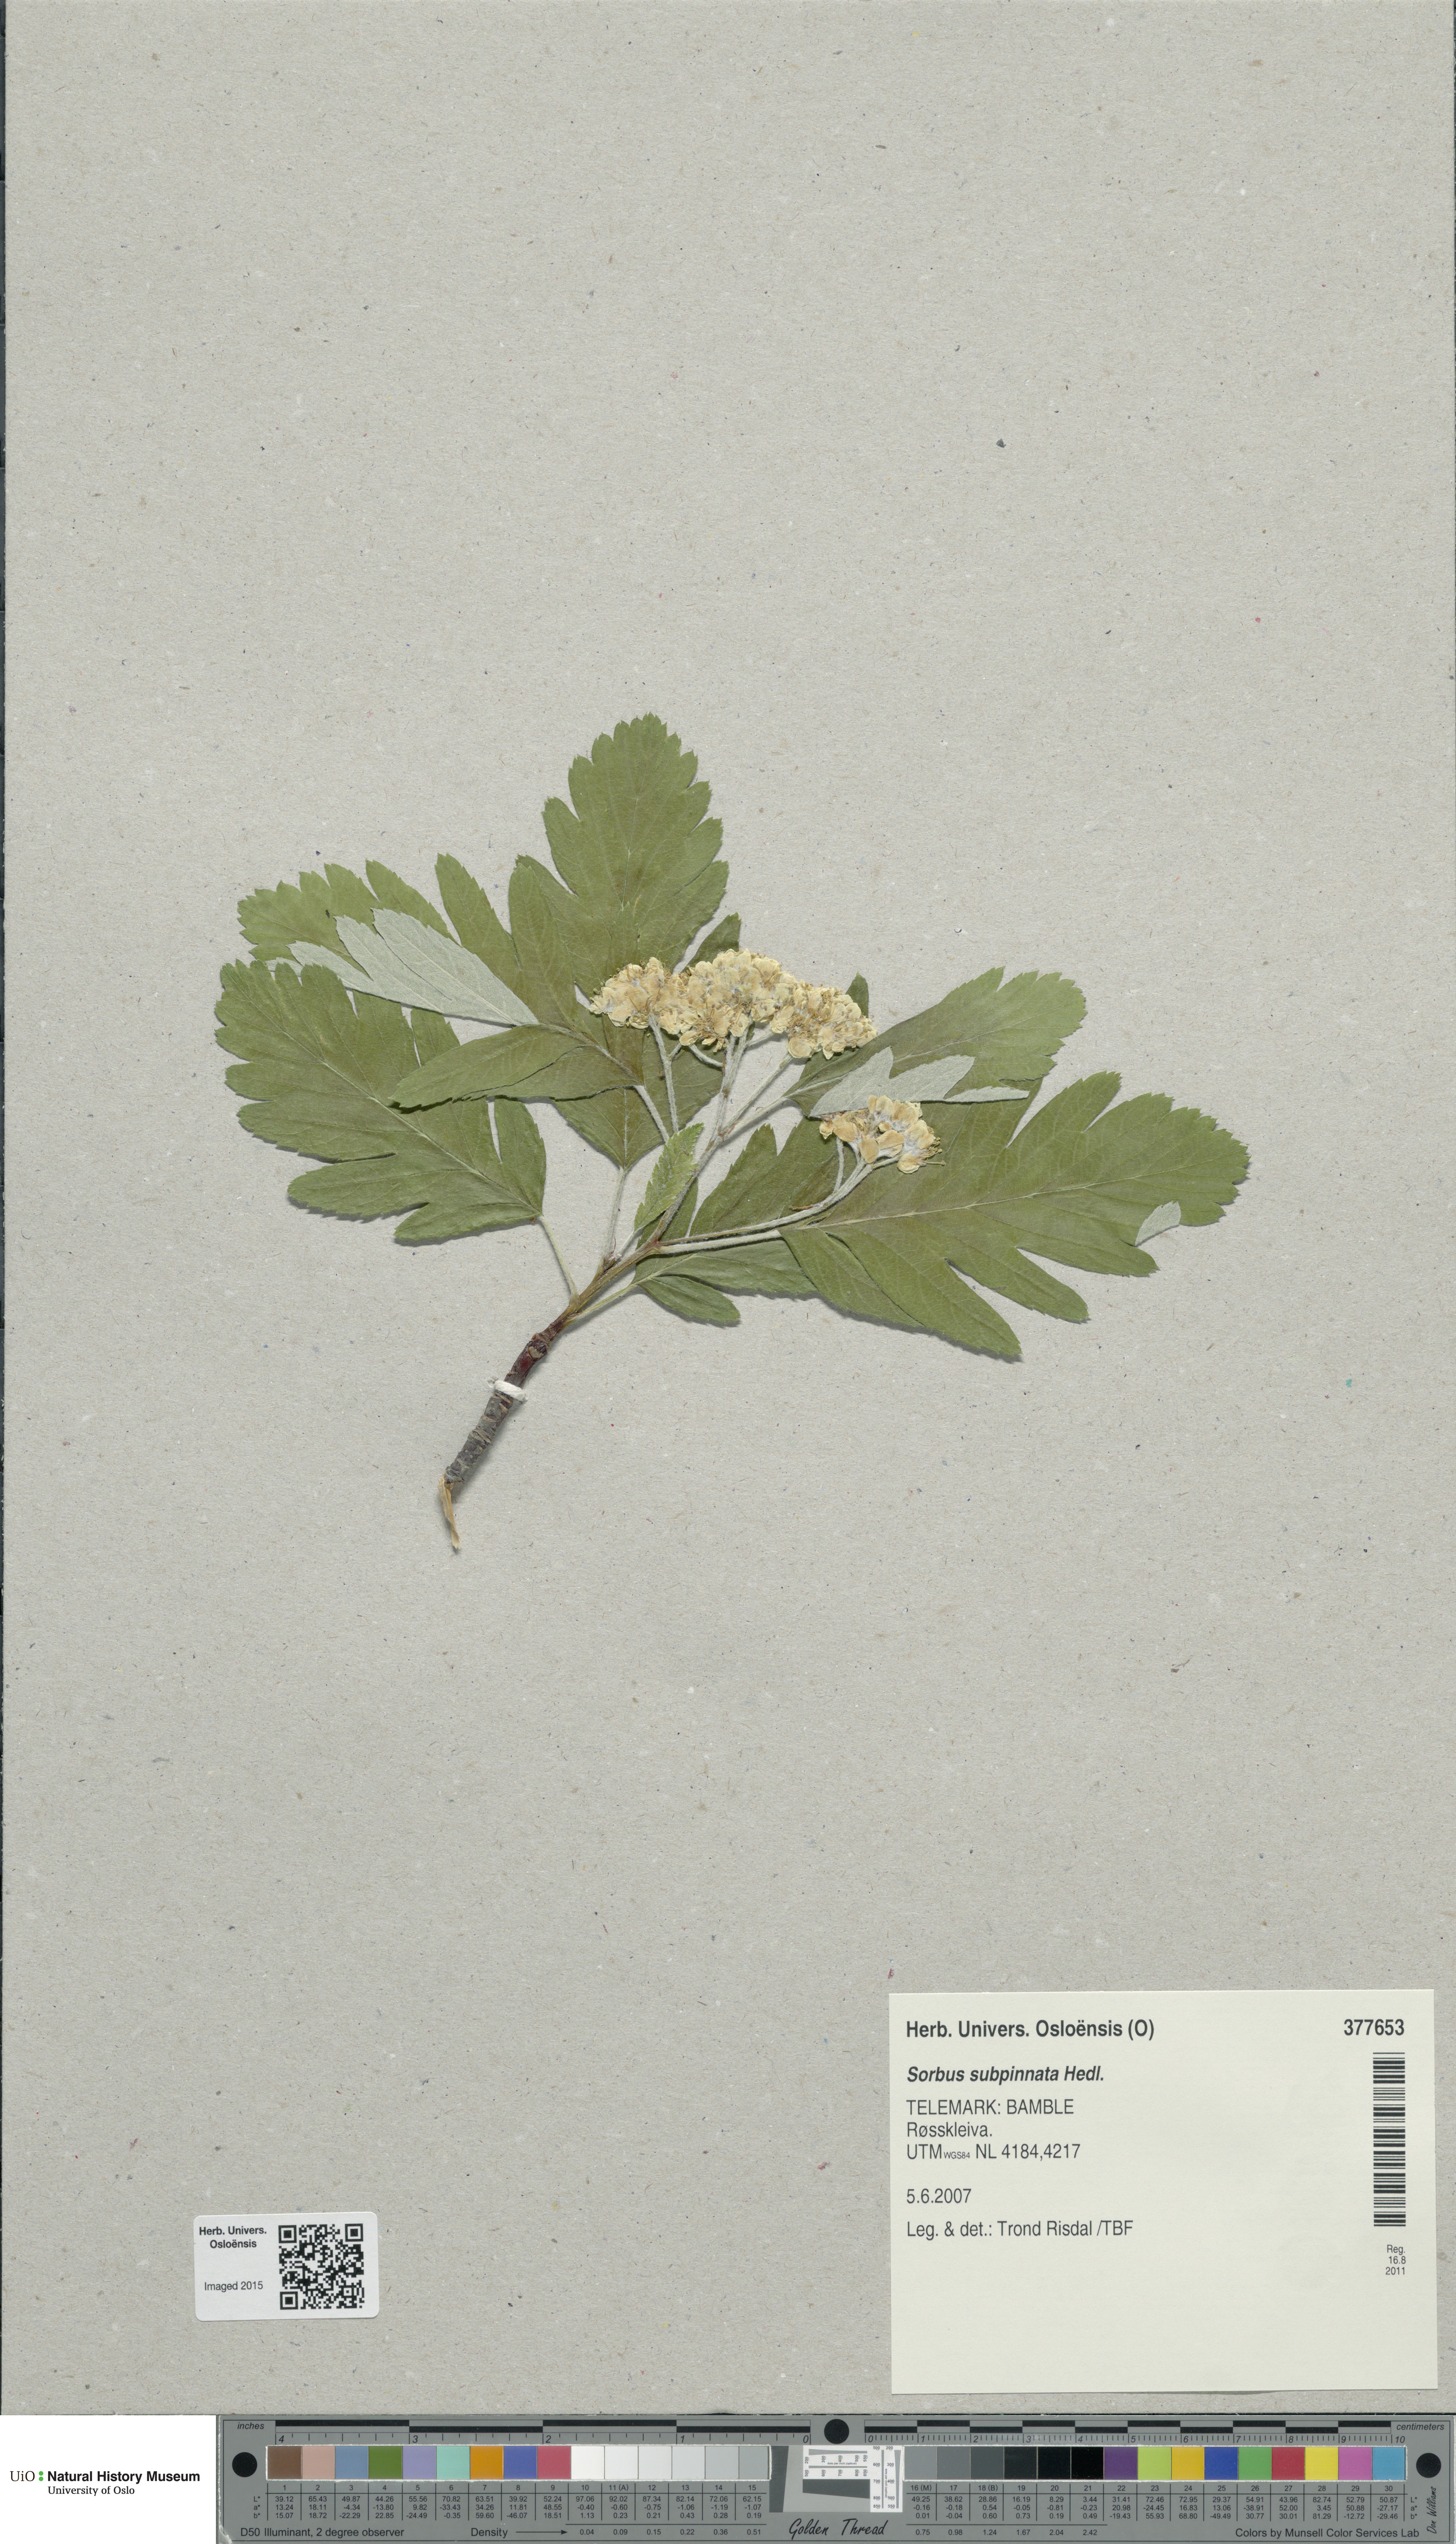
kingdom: Plantae
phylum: Tracheophyta
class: Magnoliopsida
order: Rosales
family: Rosaceae
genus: Hedlundia
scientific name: Hedlundia subpinnata
